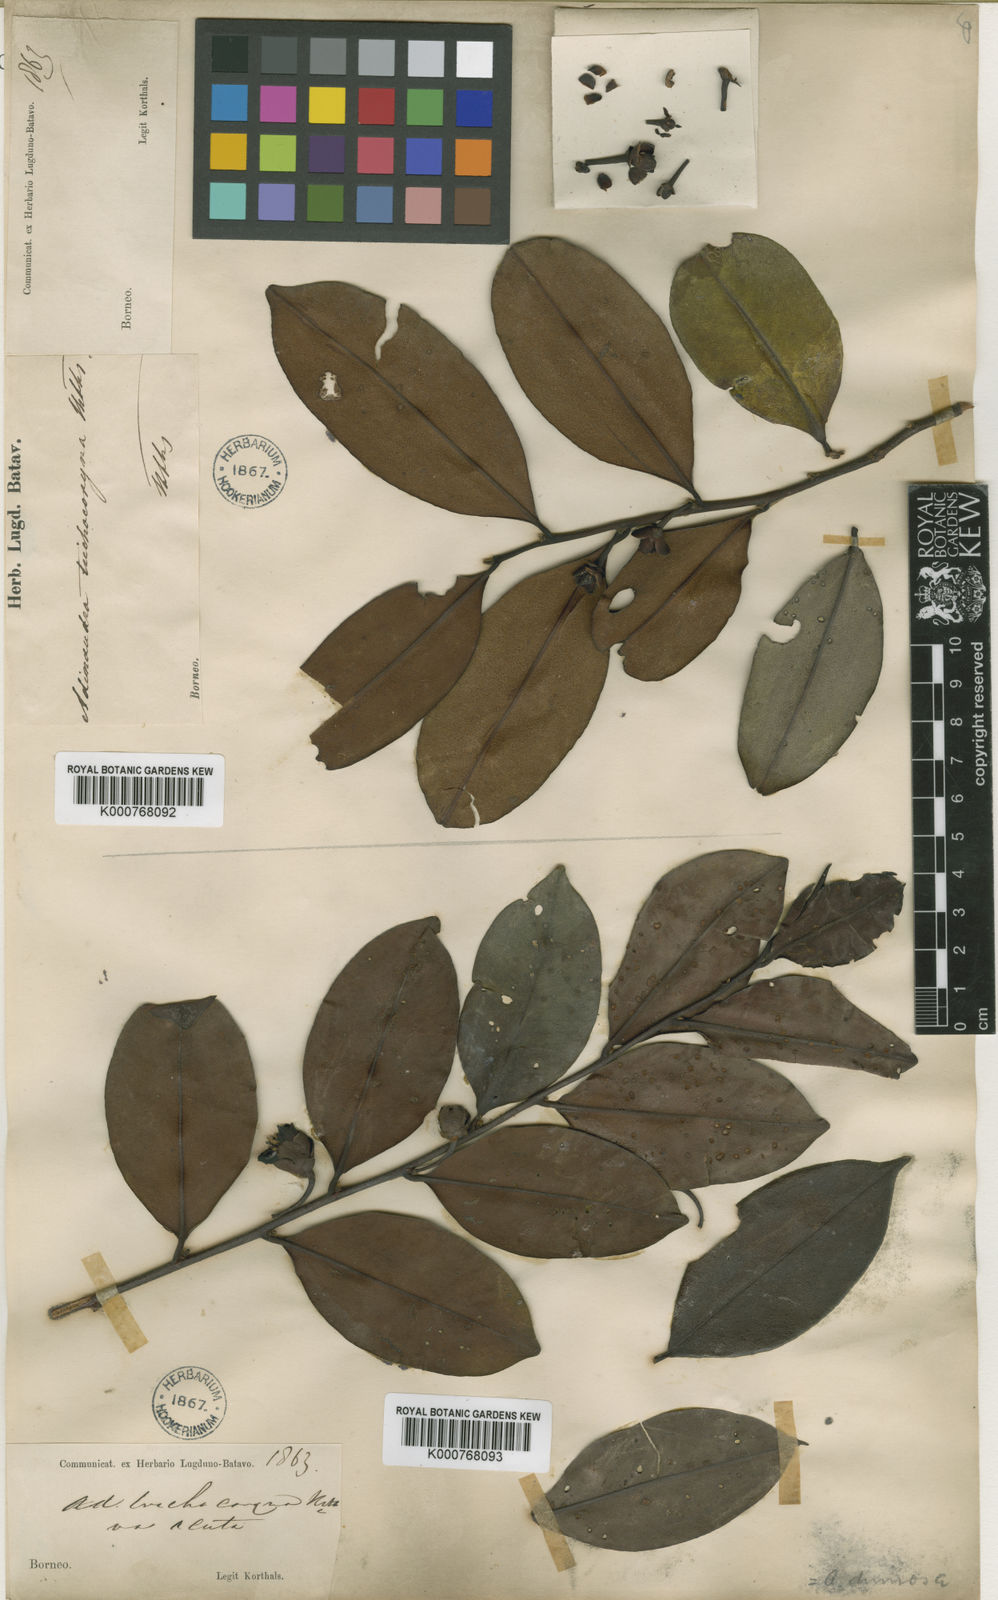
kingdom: Plantae
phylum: Tracheophyta
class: Magnoliopsida
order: Ericales
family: Pentaphylacaceae
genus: Adinandra
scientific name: Adinandra dumosa
